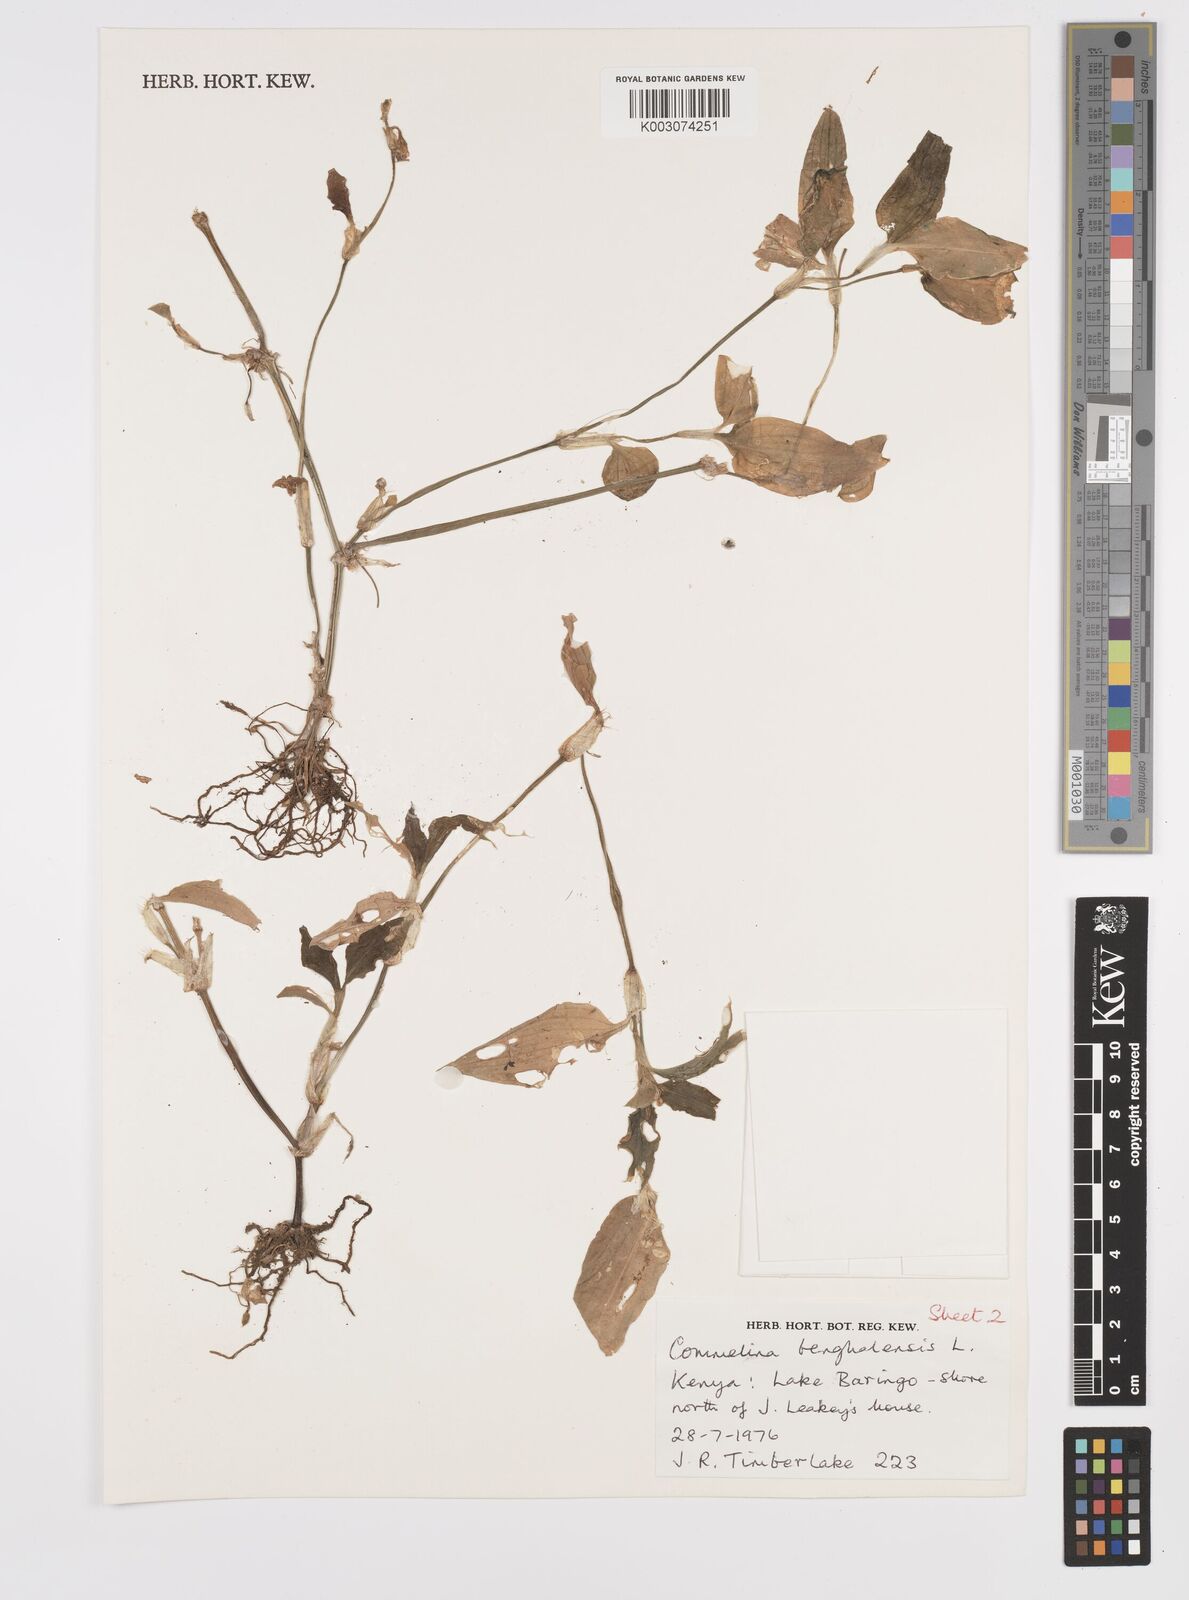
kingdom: Plantae
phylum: Tracheophyta
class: Liliopsida
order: Commelinales
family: Commelinaceae
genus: Commelina
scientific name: Commelina benghalensis
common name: Jio
